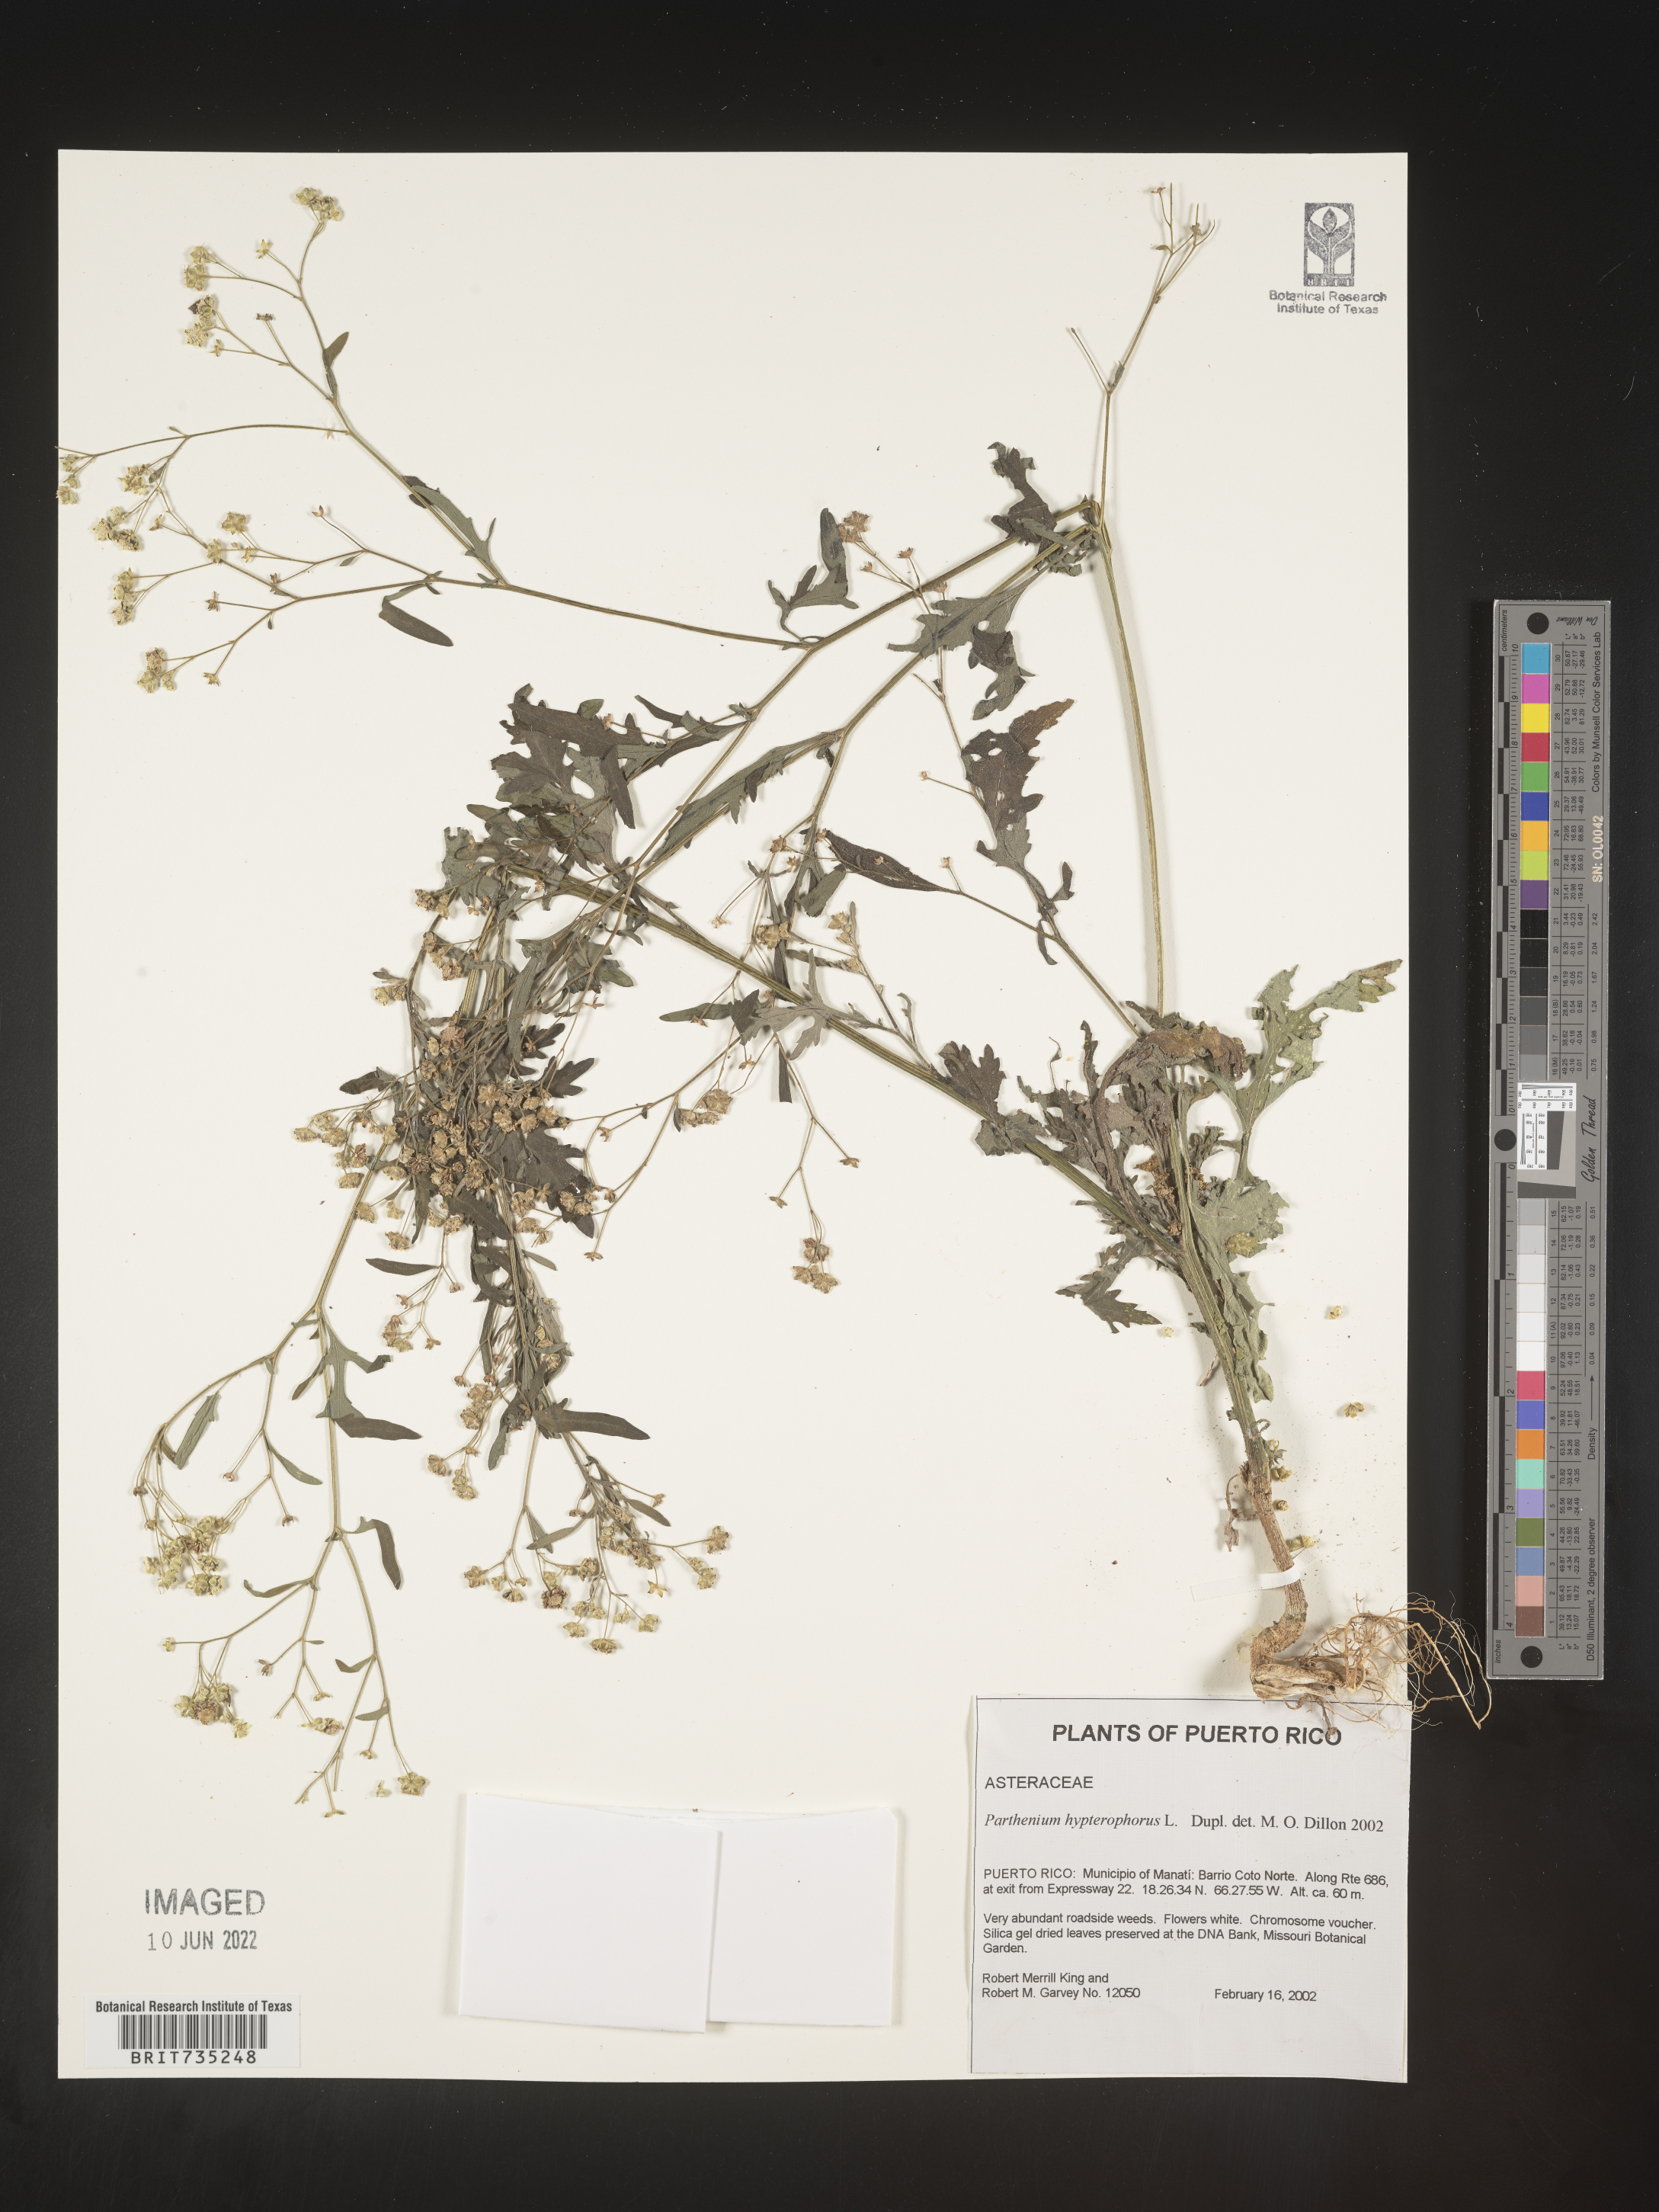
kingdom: Plantae
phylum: Tracheophyta
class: Magnoliopsida
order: Asterales
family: Asteraceae
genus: Parthenium
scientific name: Parthenium
